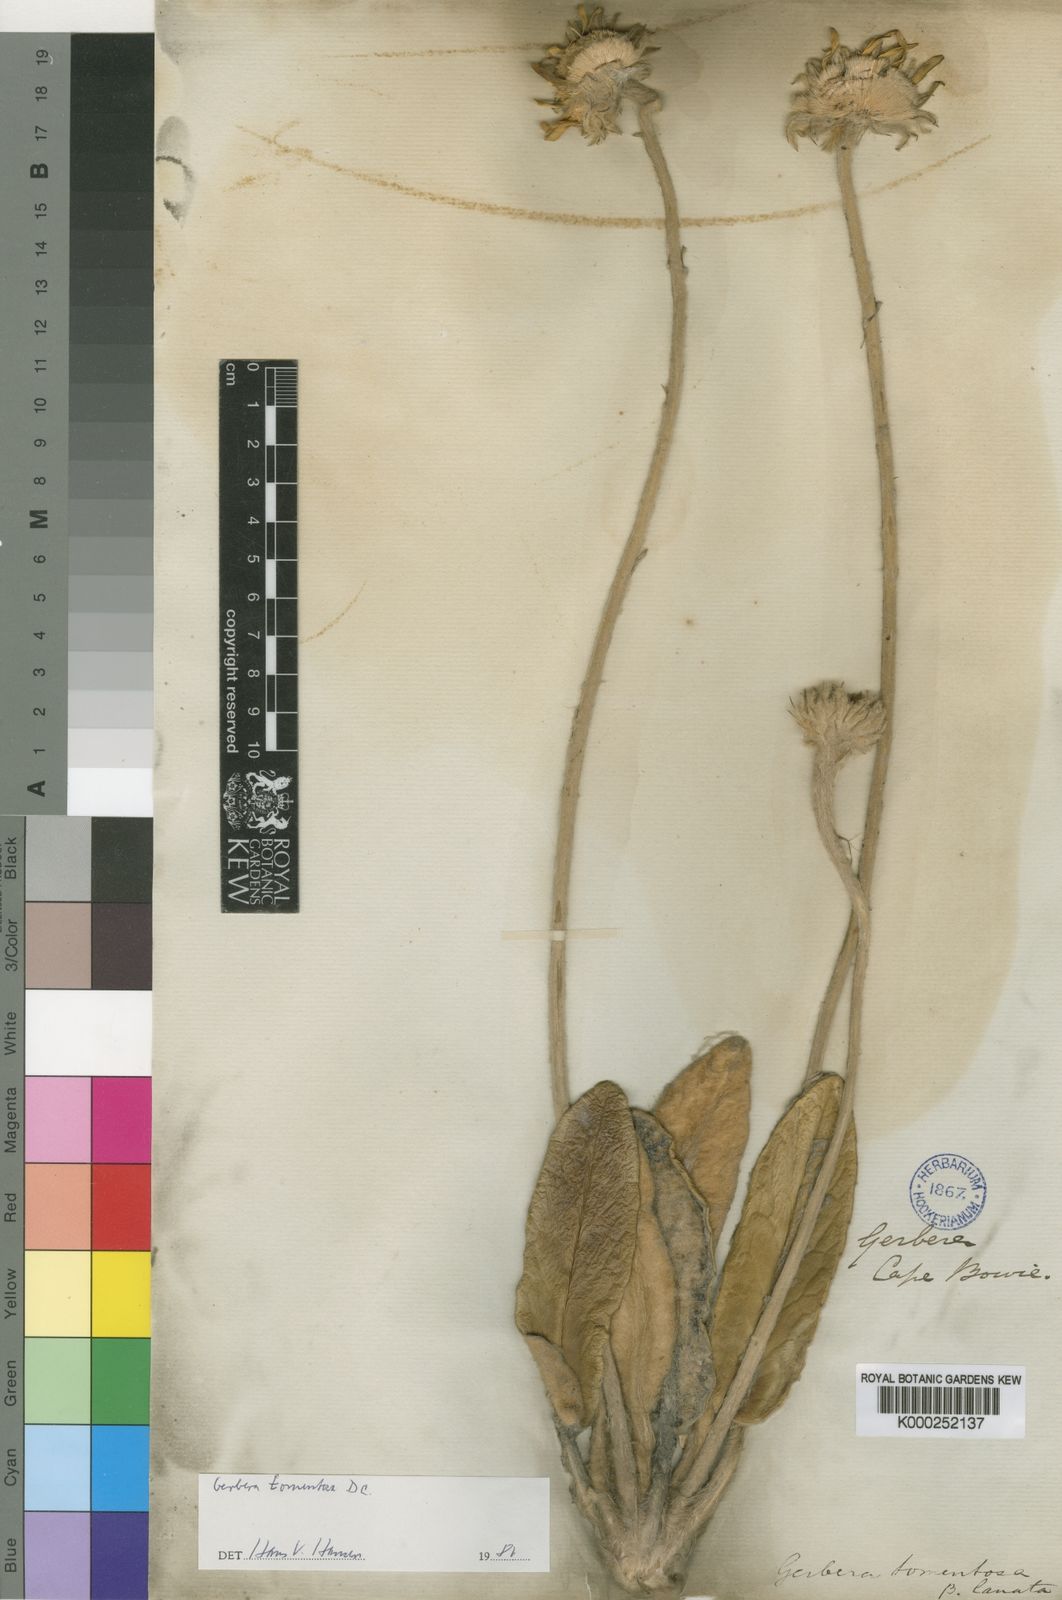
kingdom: Plantae
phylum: Tracheophyta
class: Magnoliopsida
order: Asterales
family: Asteraceae
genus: Gerbera
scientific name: Gerbera tomentosa
